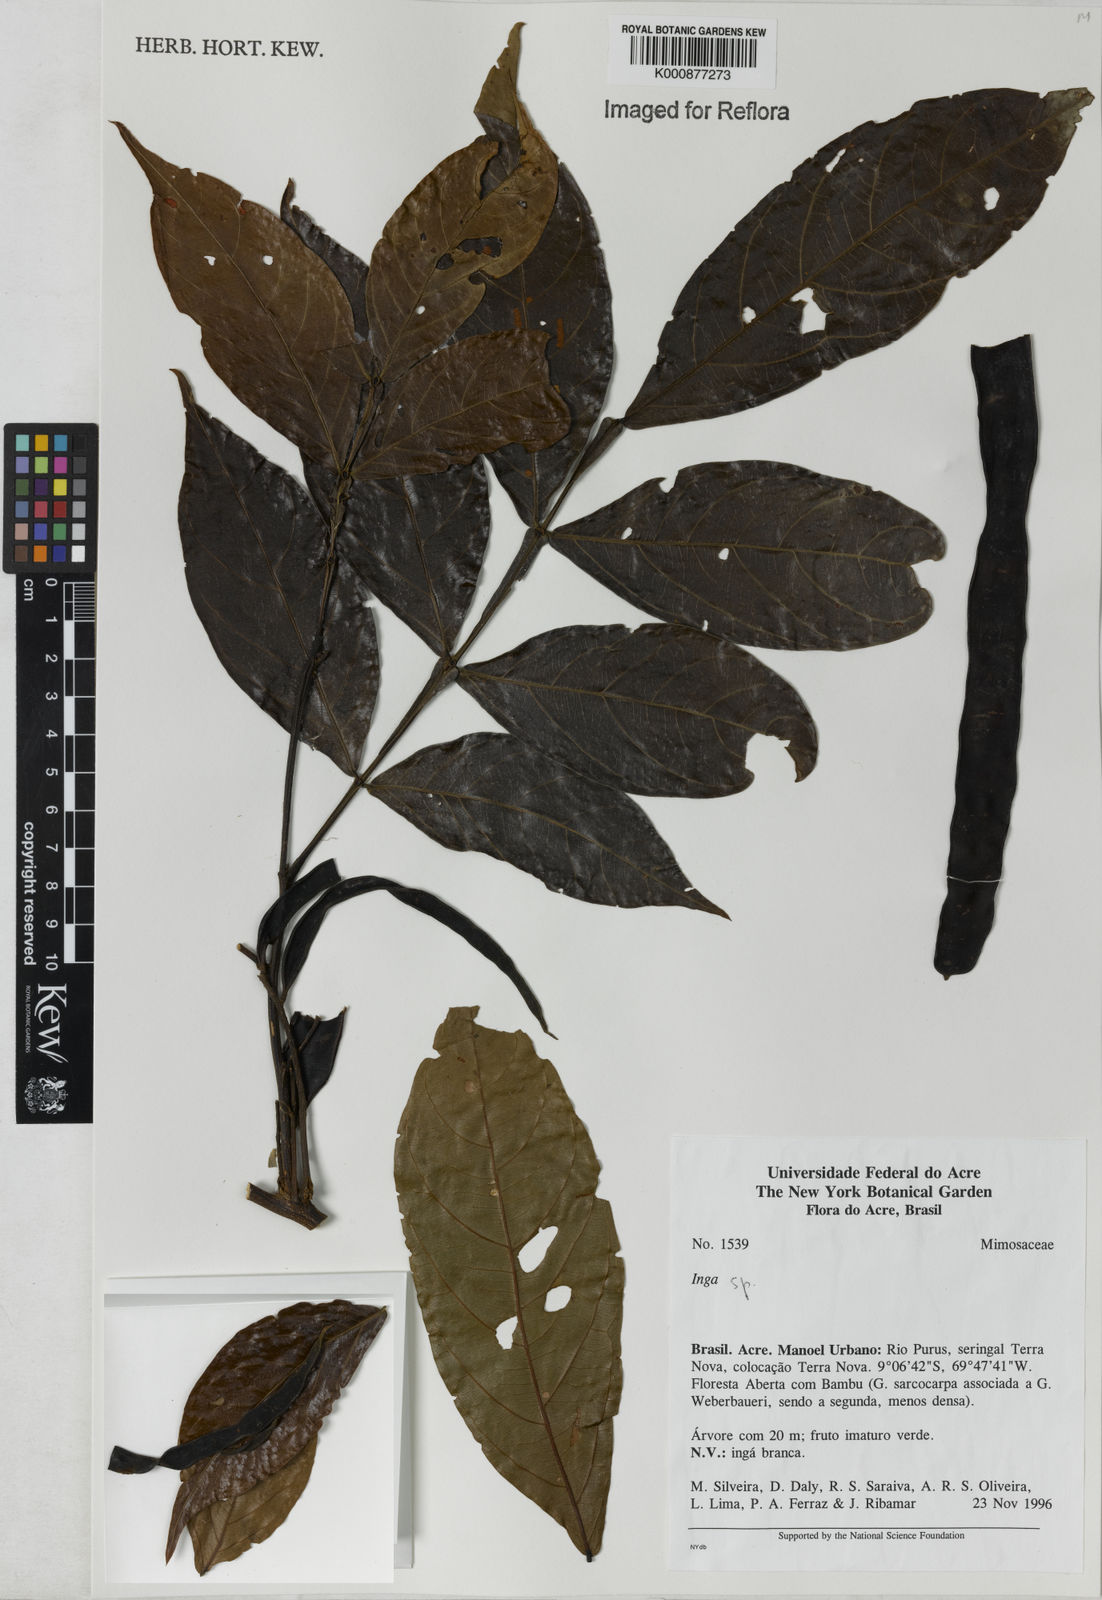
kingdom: Plantae
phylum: Tracheophyta
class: Magnoliopsida
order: Fabales
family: Fabaceae
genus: Inga
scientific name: Inga
